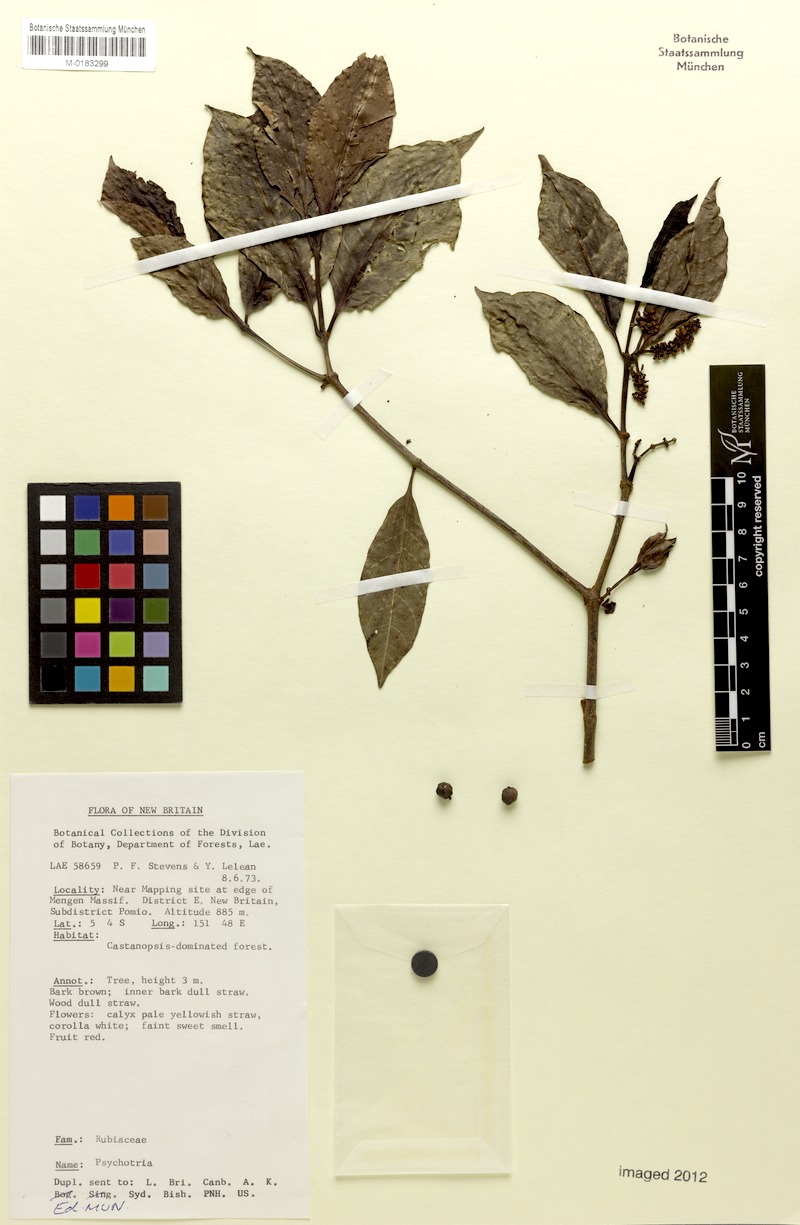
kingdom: Plantae
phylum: Tracheophyta
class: Magnoliopsida
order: Gentianales
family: Rubiaceae
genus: Psychotria
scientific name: Psychotria leleanoides
